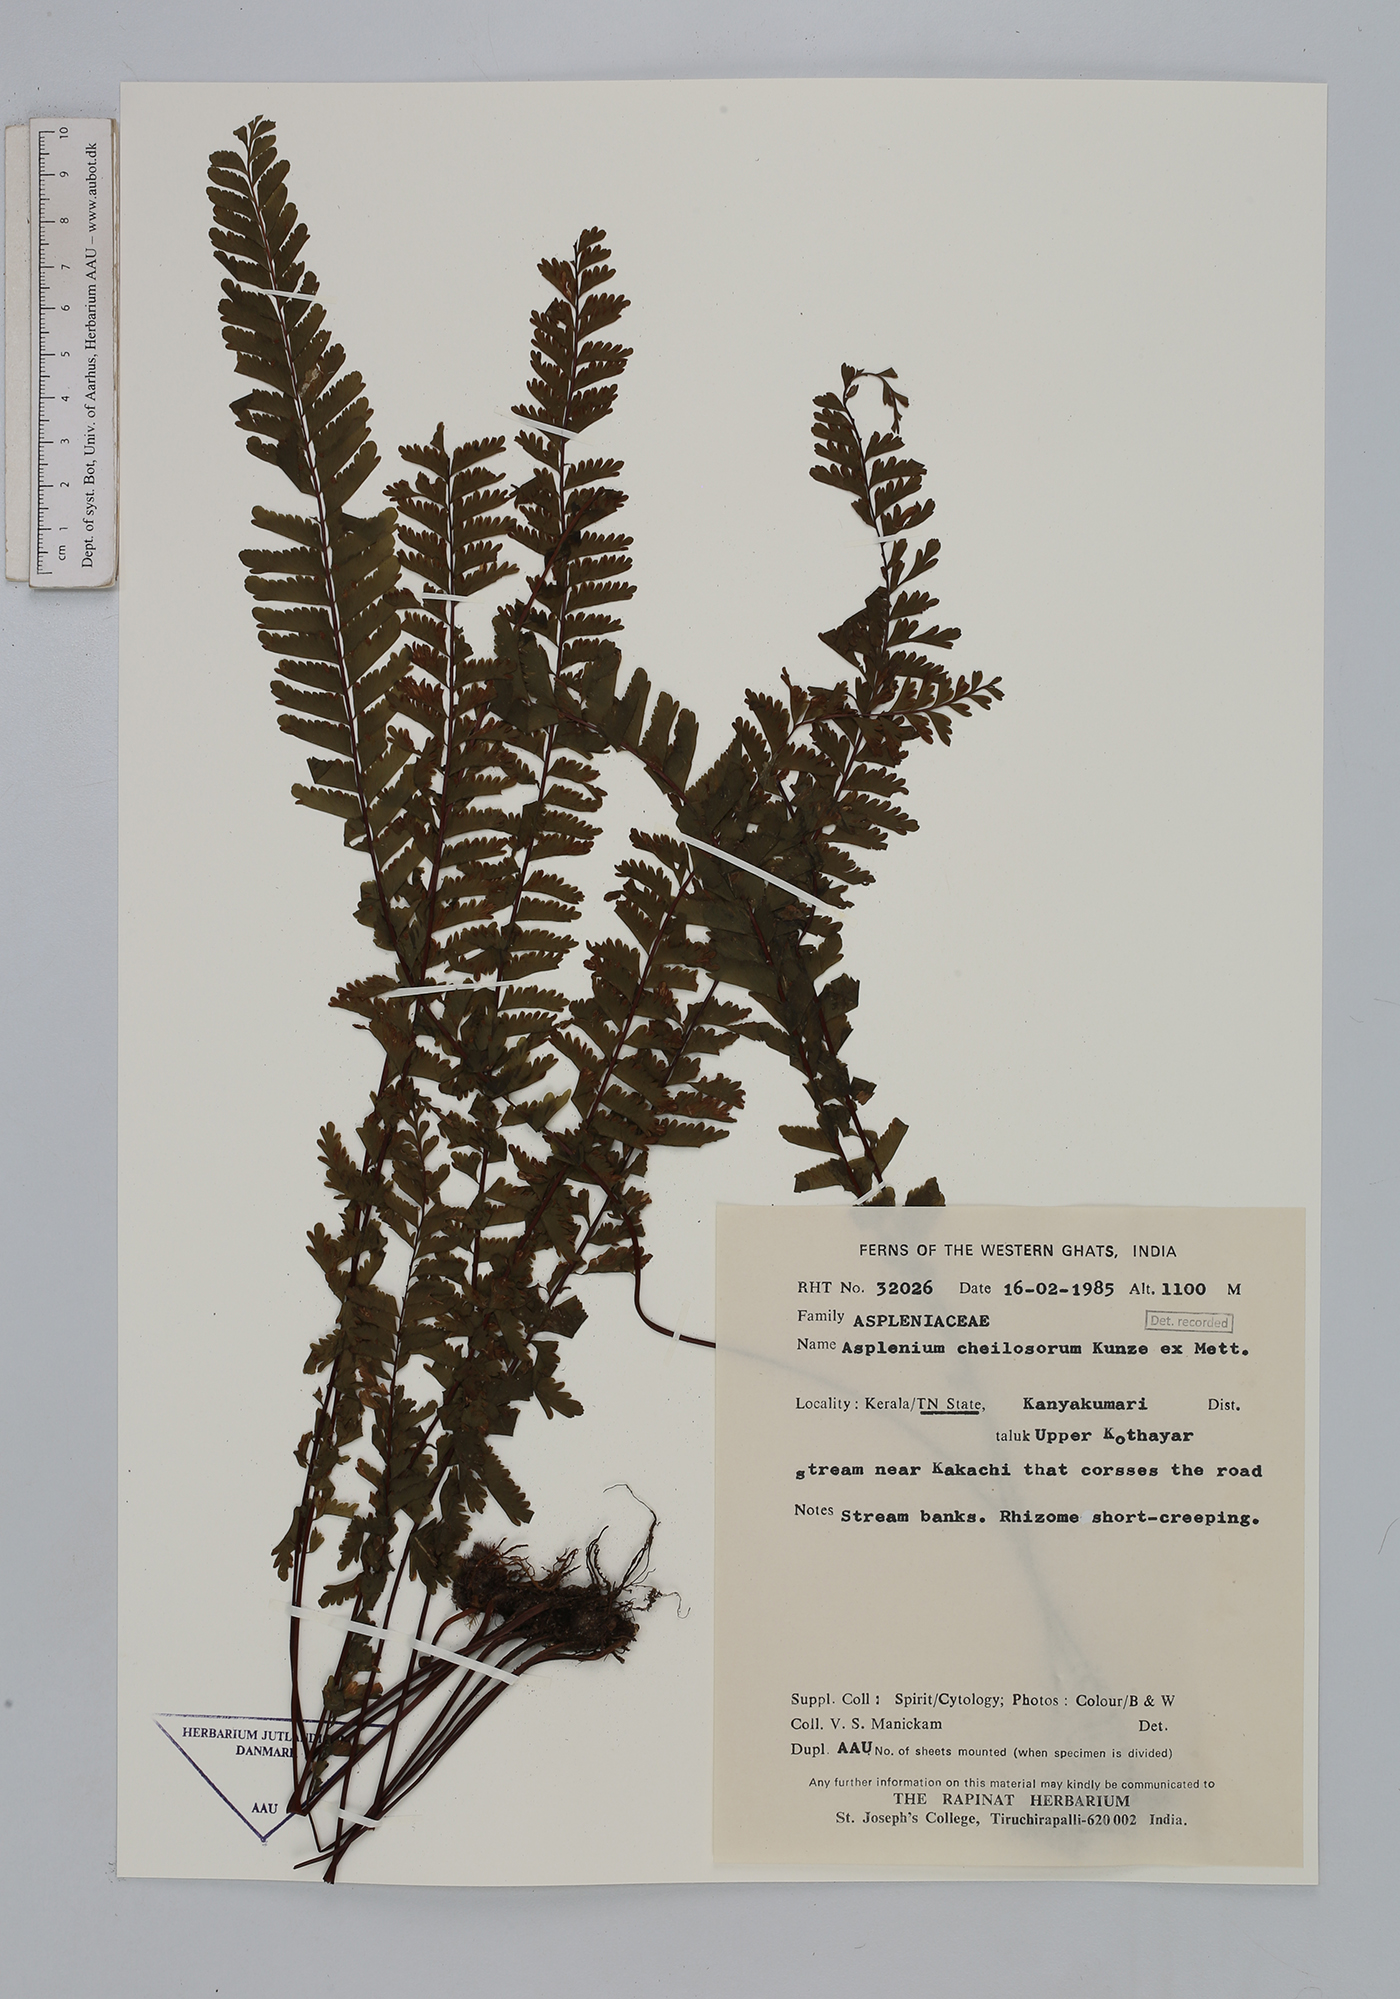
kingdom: Plantae
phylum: Tracheophyta
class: Polypodiopsida
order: Polypodiales
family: Aspleniaceae
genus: Hymenasplenium
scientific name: Hymenasplenium cheilosorum
